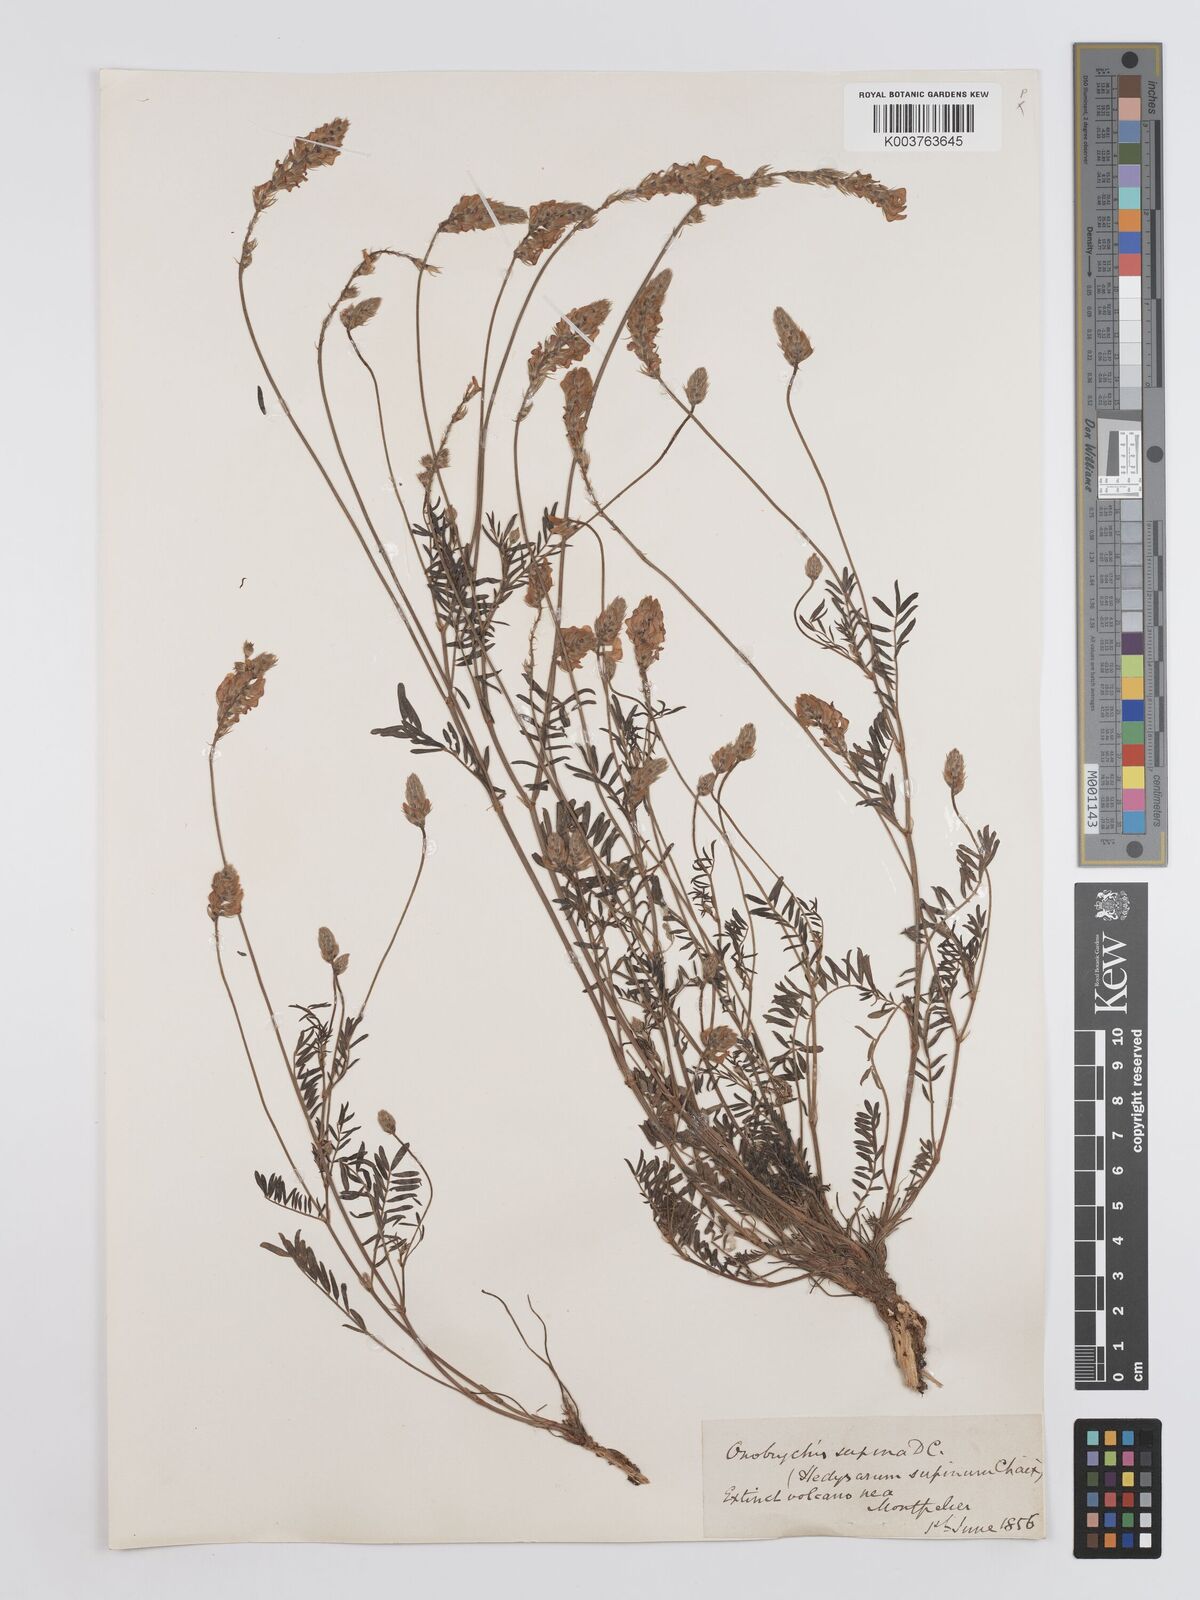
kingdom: Plantae
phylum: Tracheophyta
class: Magnoliopsida
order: Fabales
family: Fabaceae
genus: Onobrychis
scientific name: Onobrychis supina
